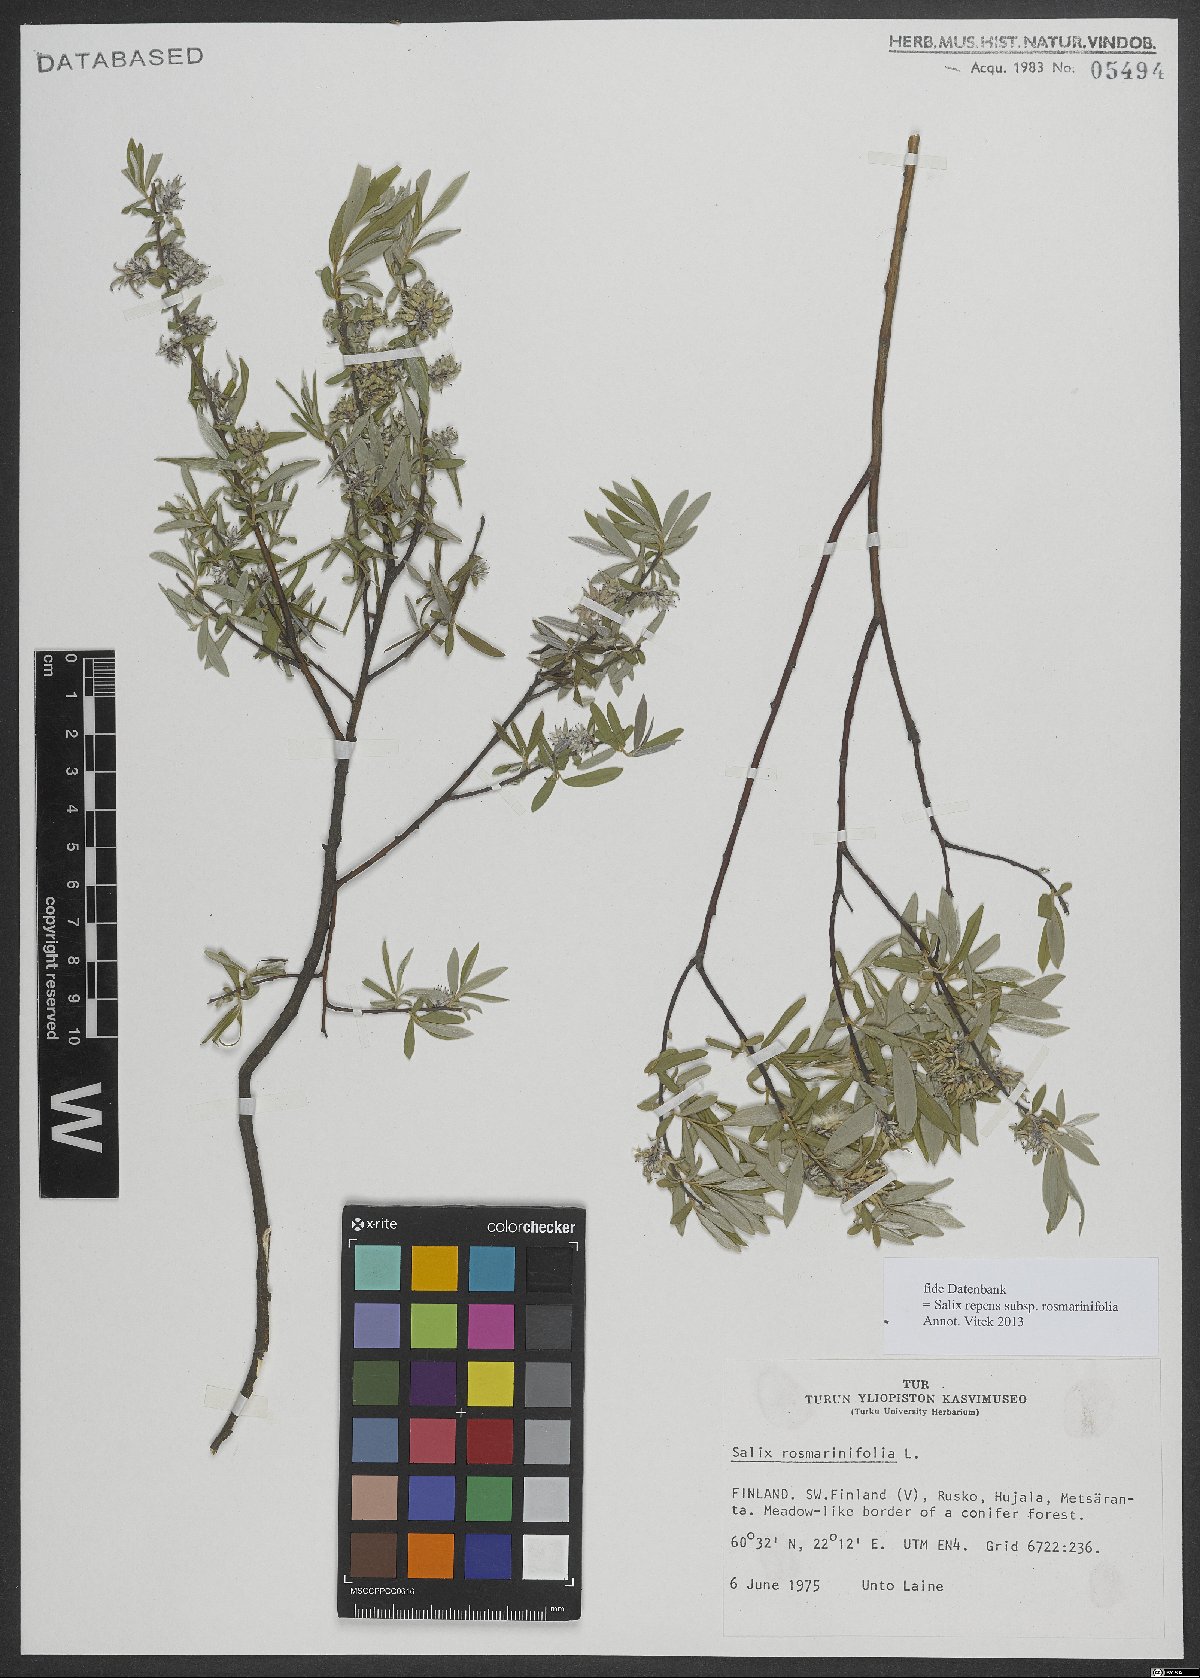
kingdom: Plantae
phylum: Tracheophyta
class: Magnoliopsida
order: Malpighiales
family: Salicaceae
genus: Salix
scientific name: Salix repens
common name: Creeping willow
